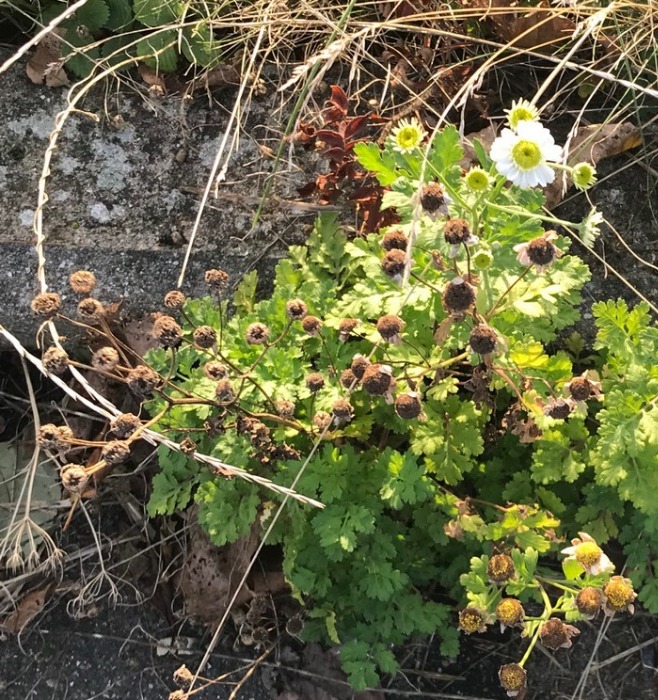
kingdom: Plantae
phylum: Tracheophyta
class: Magnoliopsida
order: Asterales
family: Asteraceae
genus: Tanacetum
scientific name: Tanacetum parthenium
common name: Matrem
